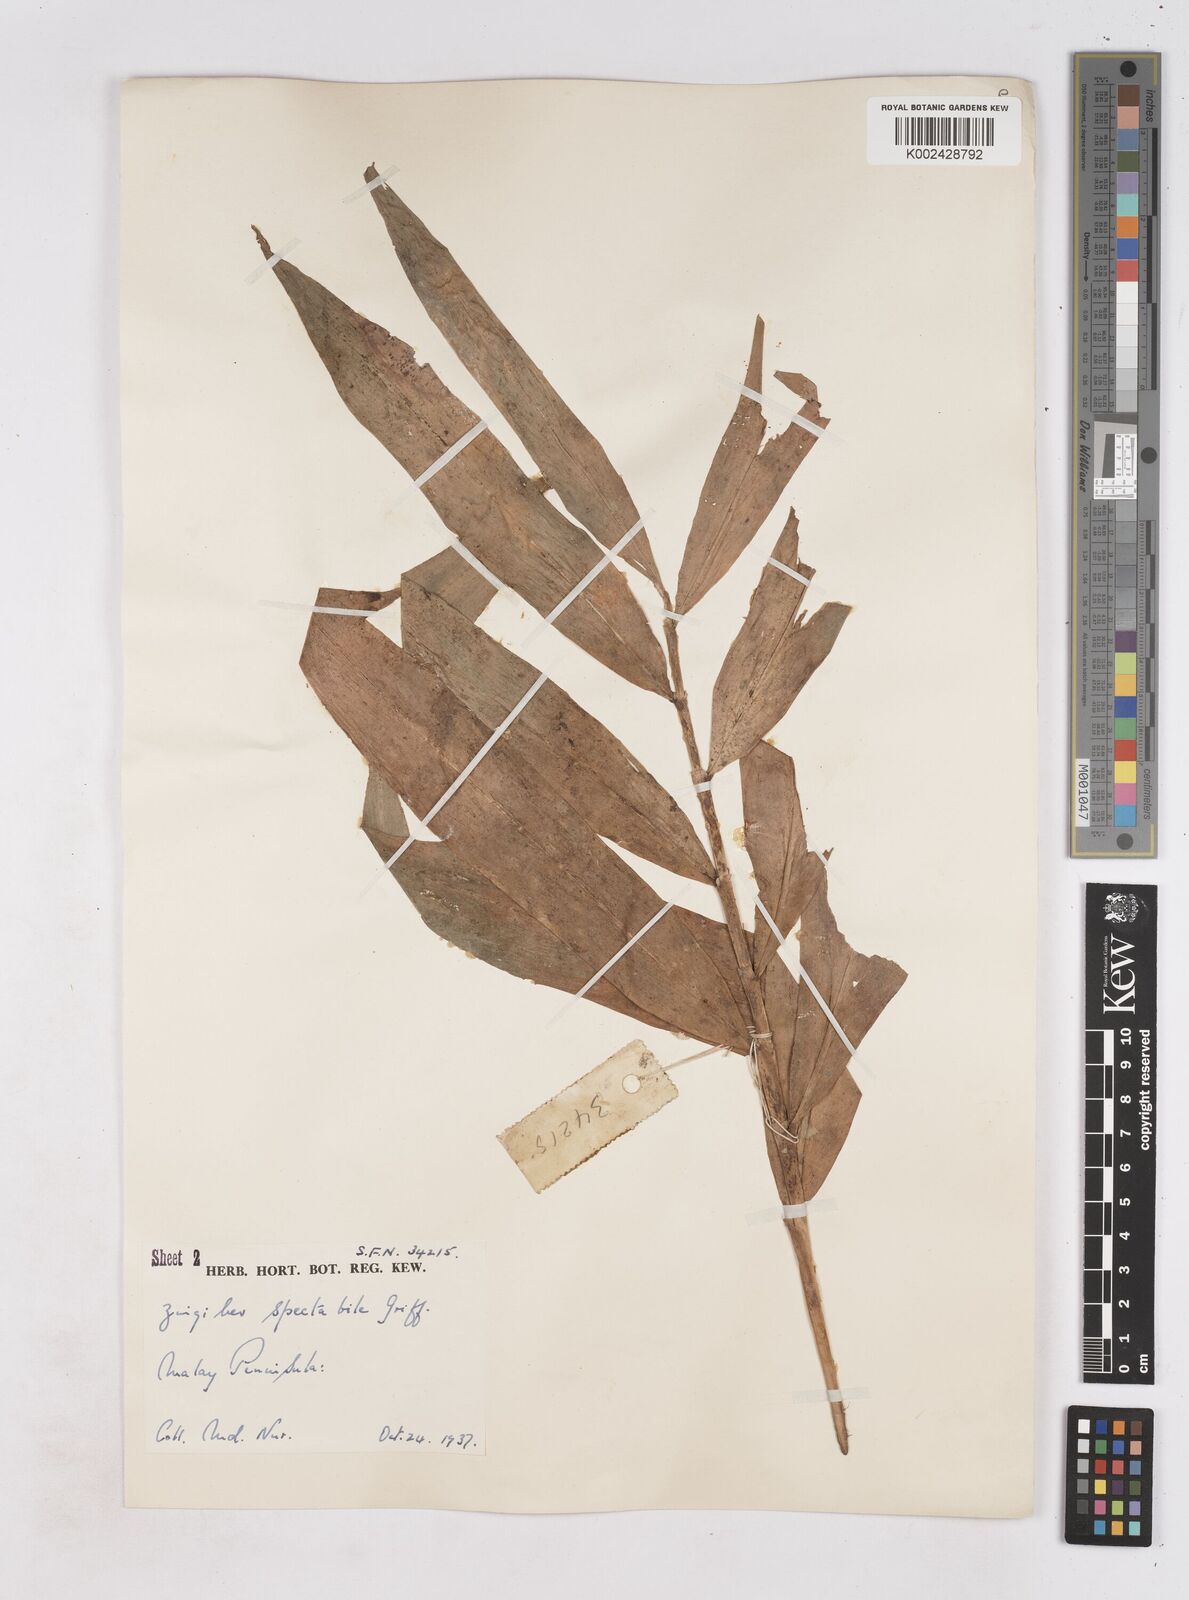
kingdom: Plantae
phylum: Tracheophyta
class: Liliopsida
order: Zingiberales
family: Zingiberaceae
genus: Zingiber
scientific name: Zingiber spectabile
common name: Beehive ginger
